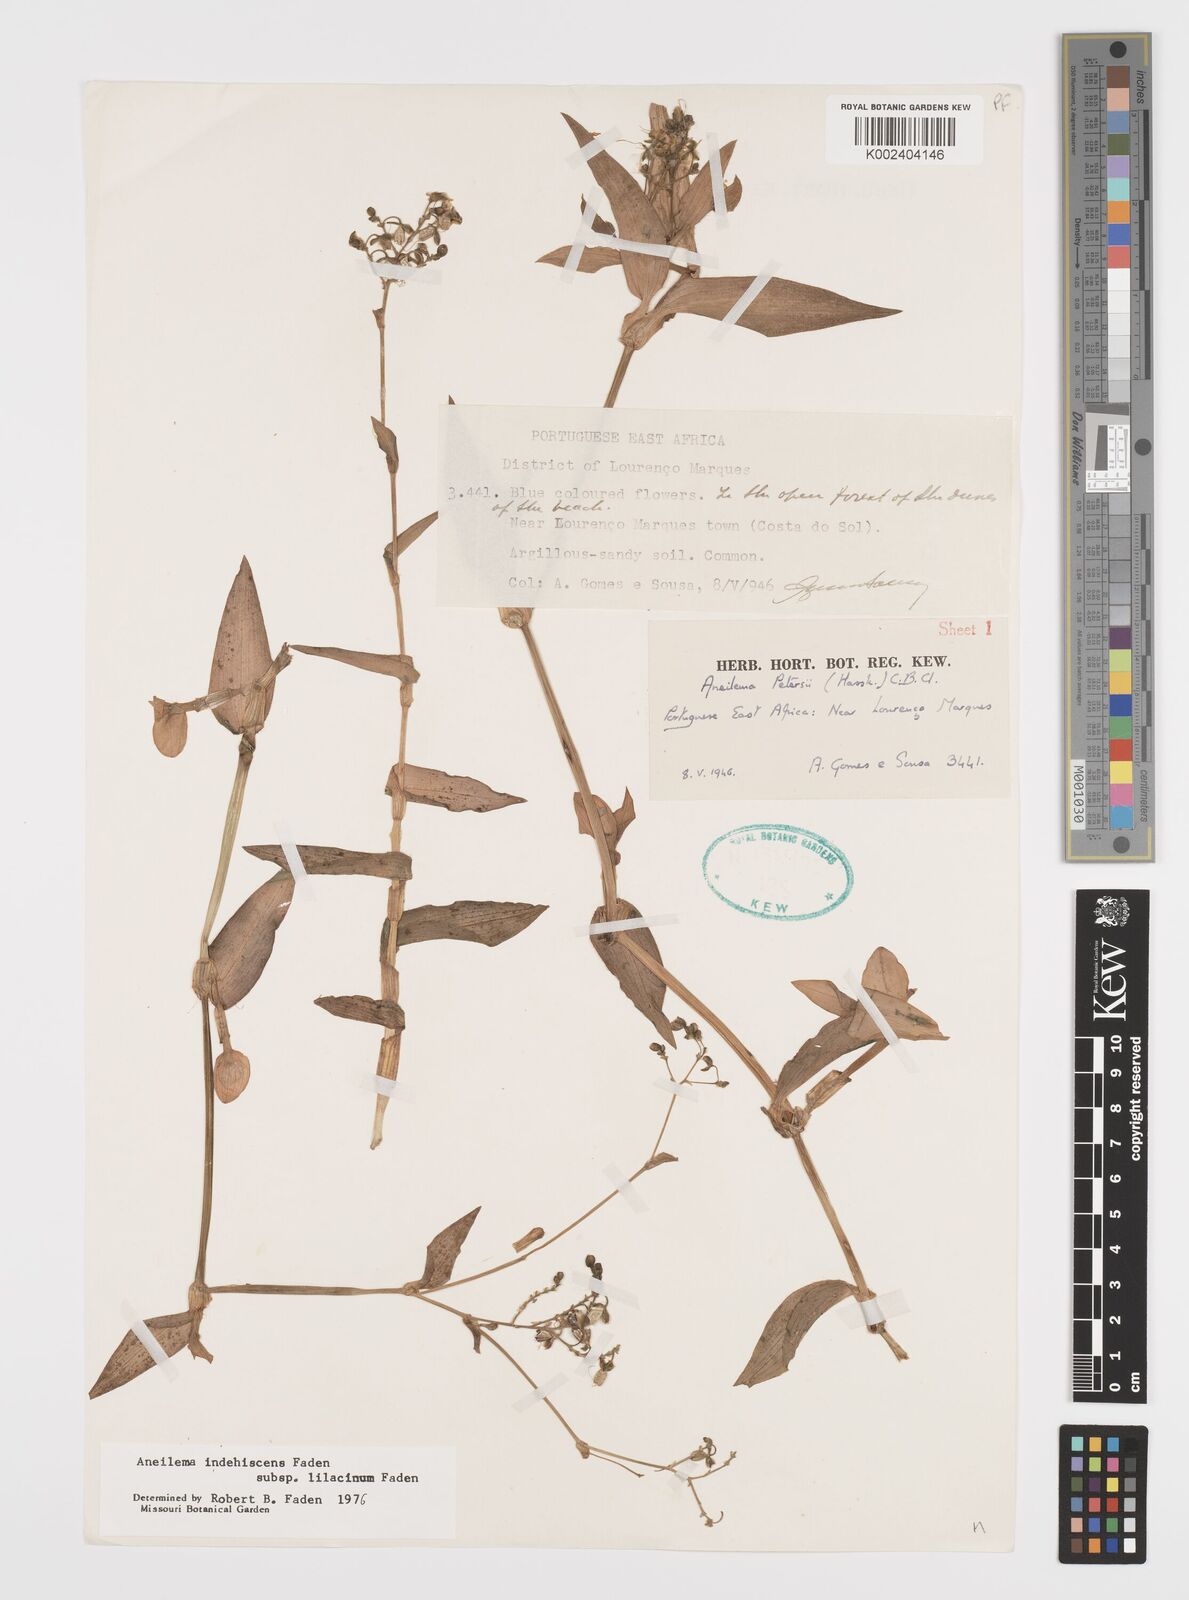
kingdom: Plantae
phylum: Tracheophyta
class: Liliopsida
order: Commelinales
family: Commelinaceae
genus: Aneilema
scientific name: Aneilema indehiscens
